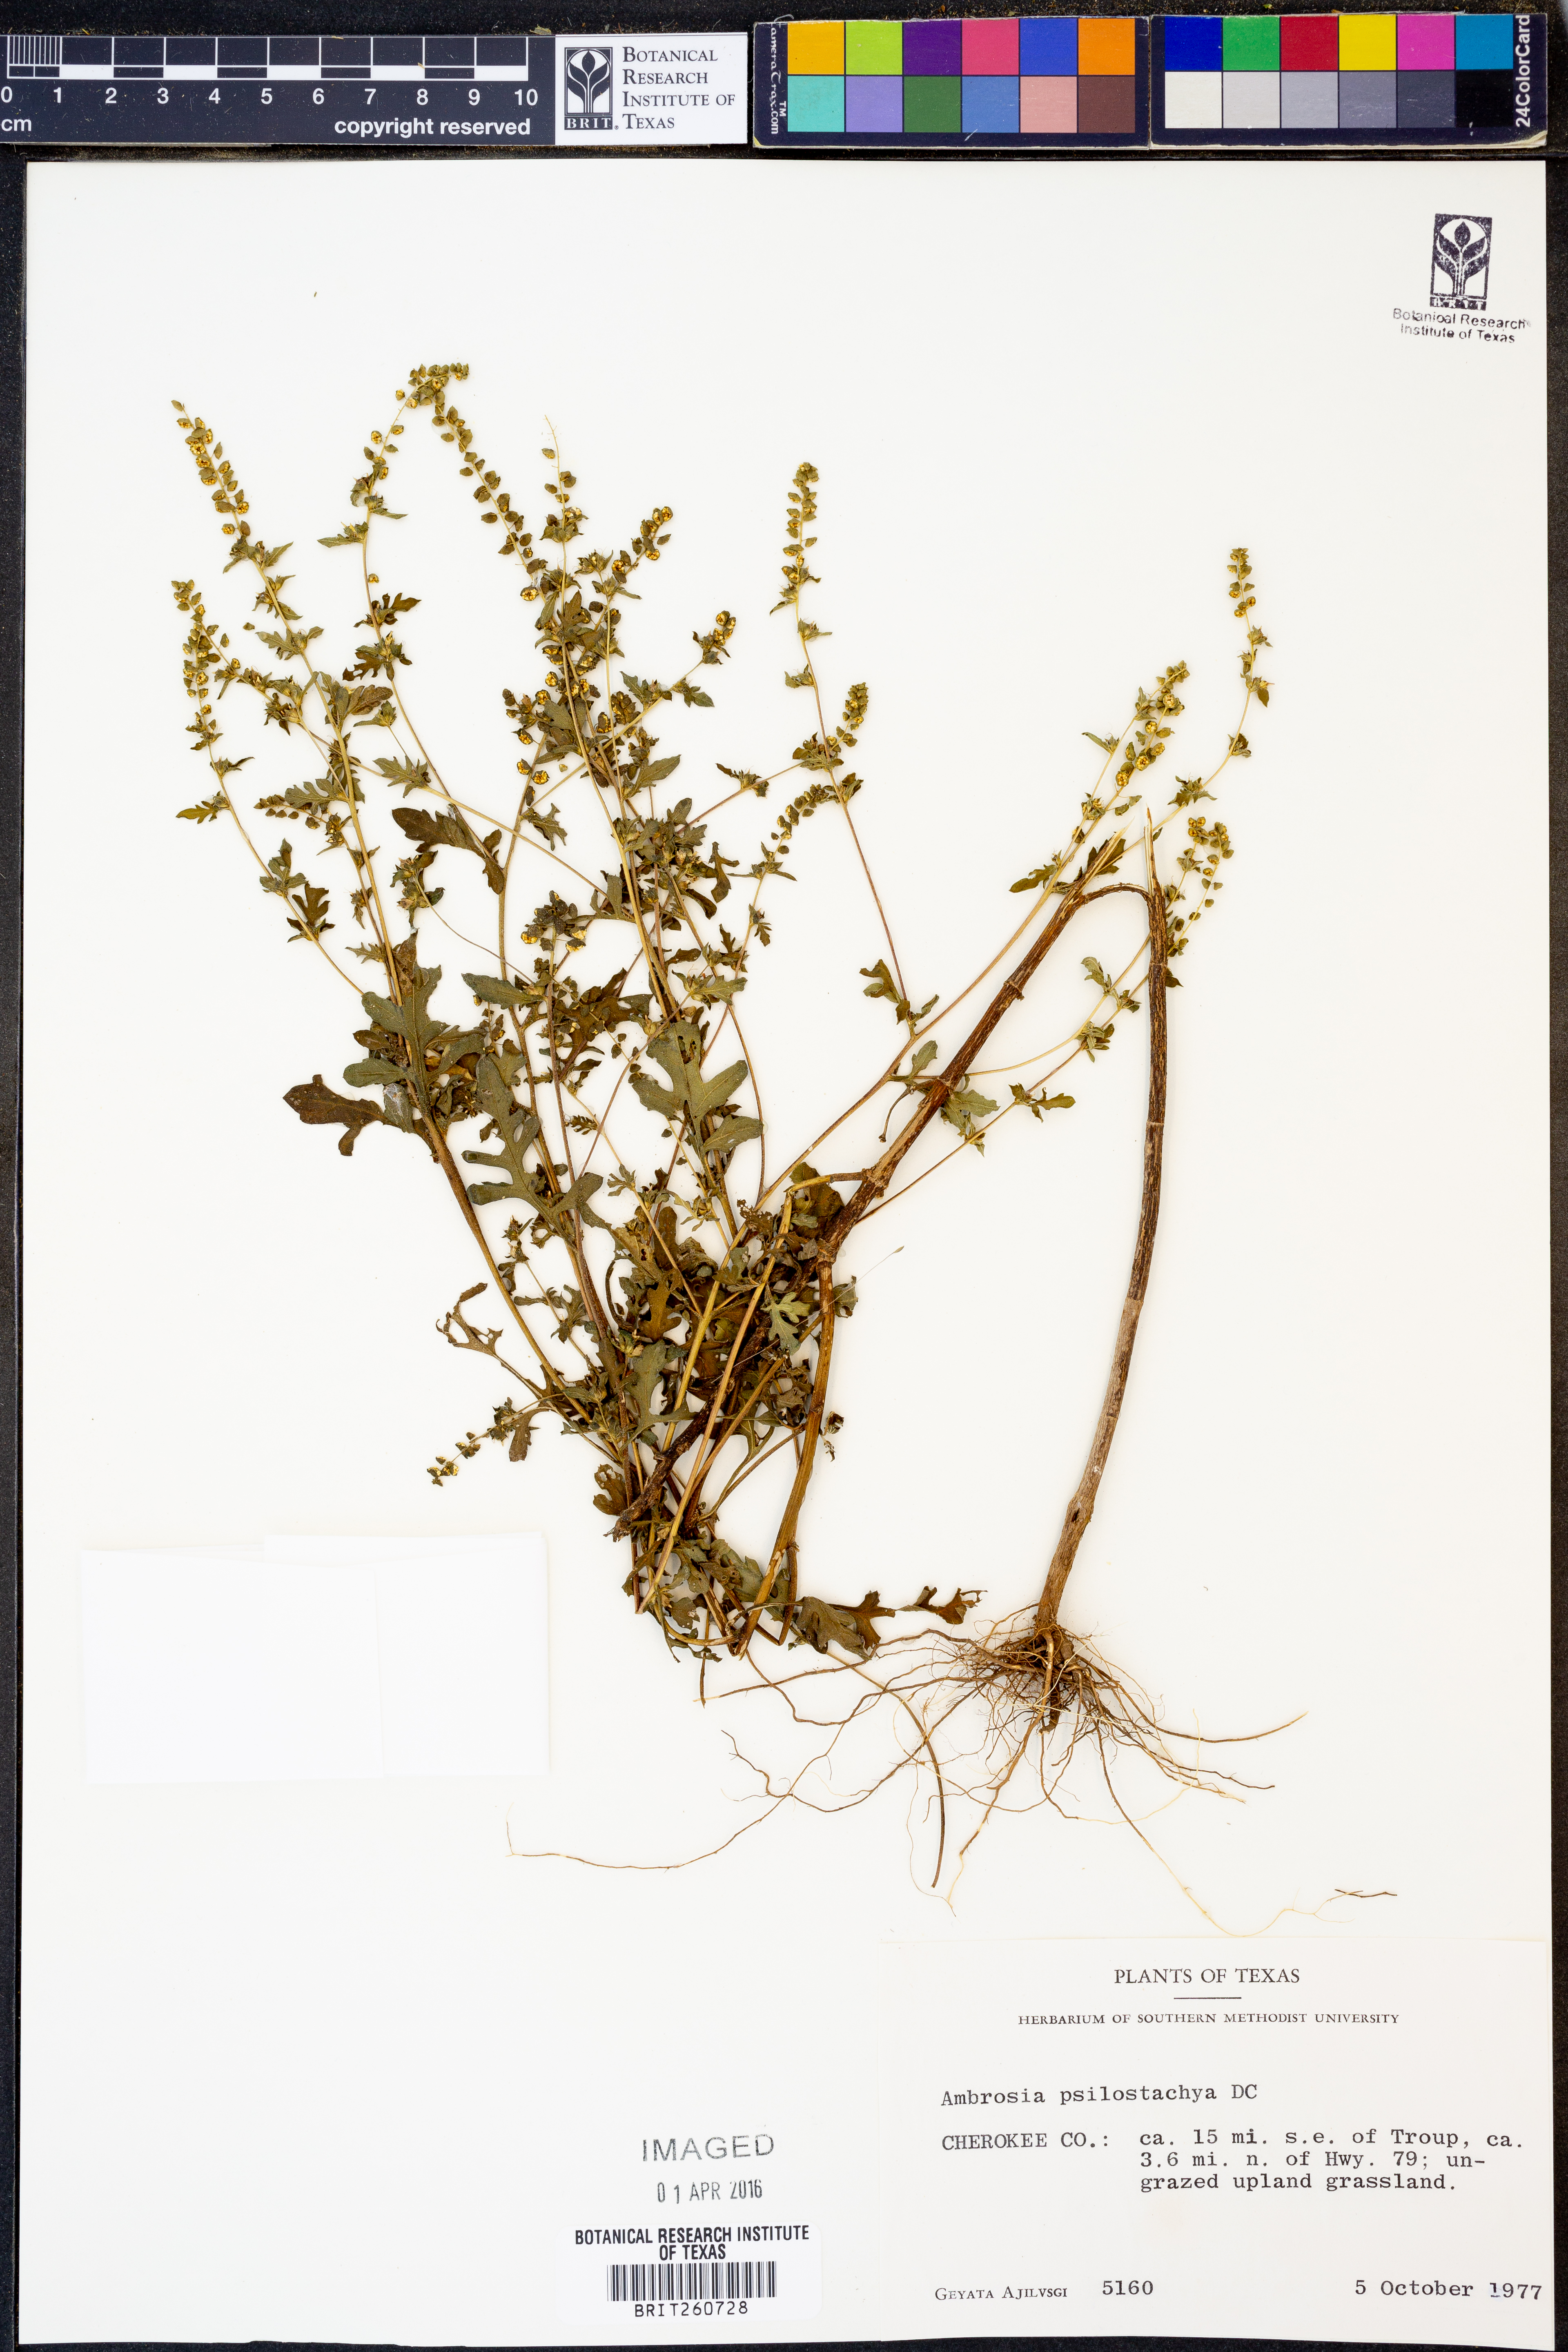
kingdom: Plantae
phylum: Tracheophyta
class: Magnoliopsida
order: Asterales
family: Asteraceae
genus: Ambrosia
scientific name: Ambrosia psilostachya
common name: Perennial ragweed
